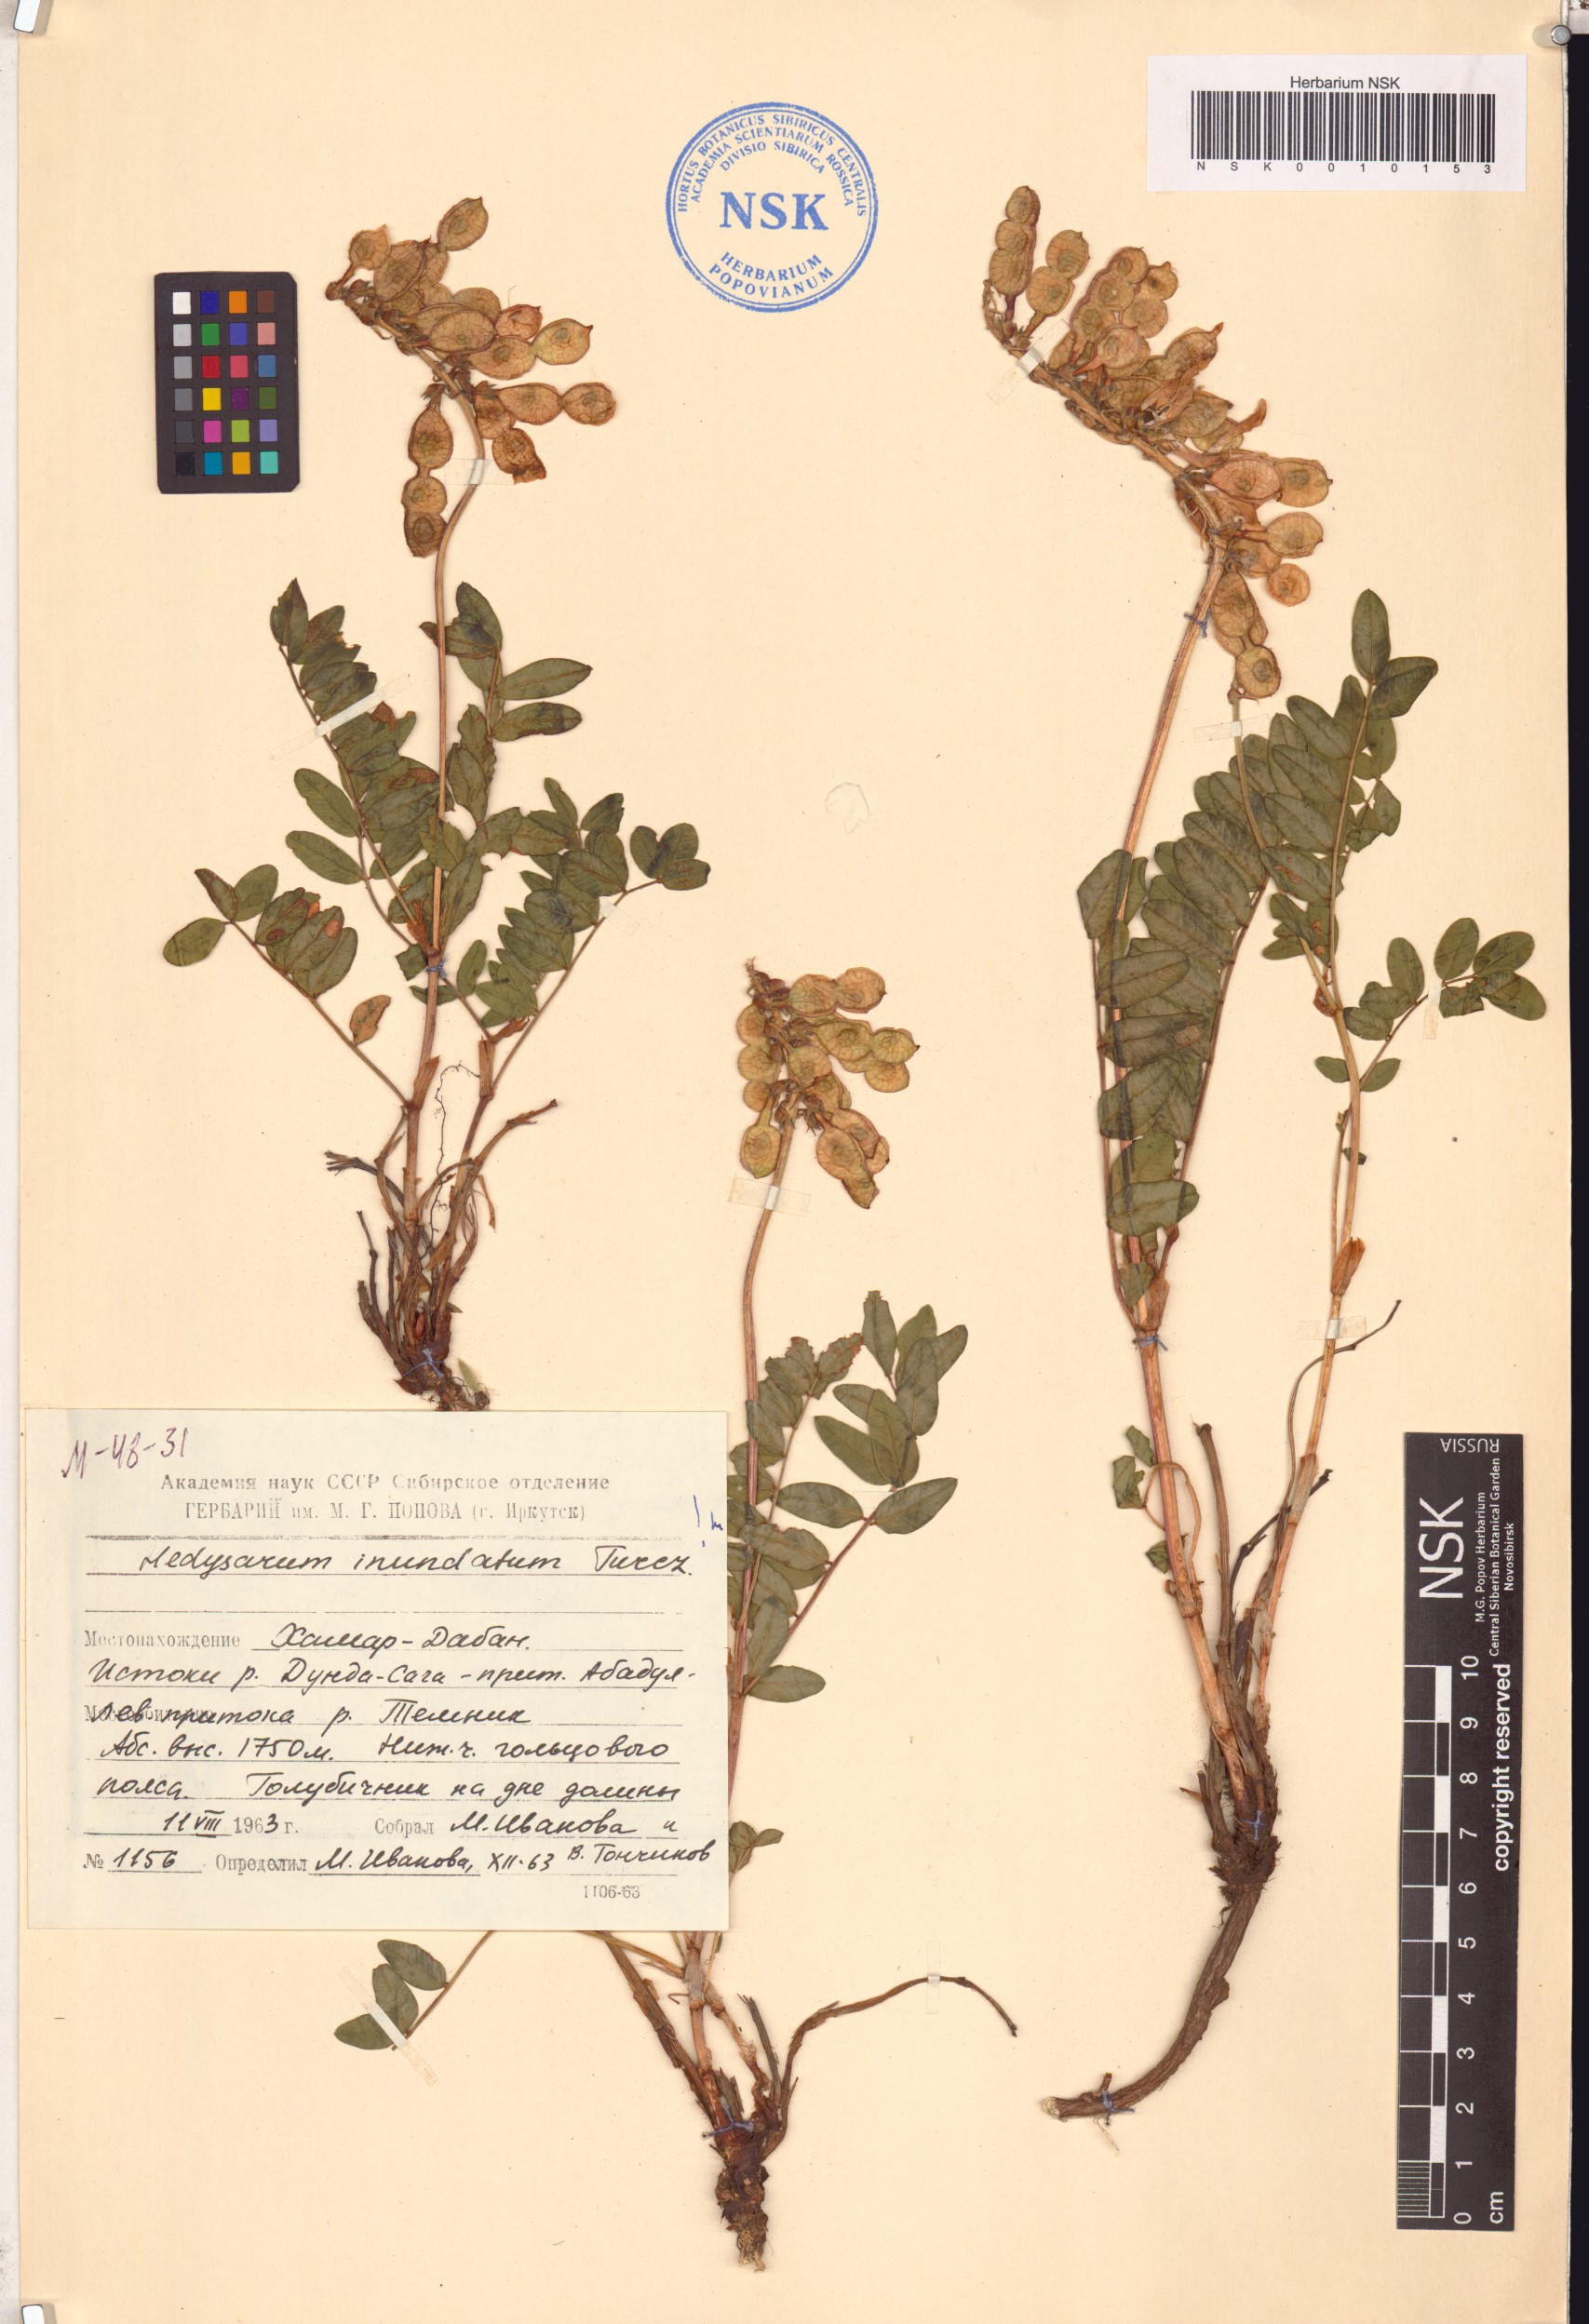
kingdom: Plantae
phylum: Tracheophyta
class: Magnoliopsida
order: Fabales
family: Fabaceae
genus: Hedysarum
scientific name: Hedysarum inundatum
